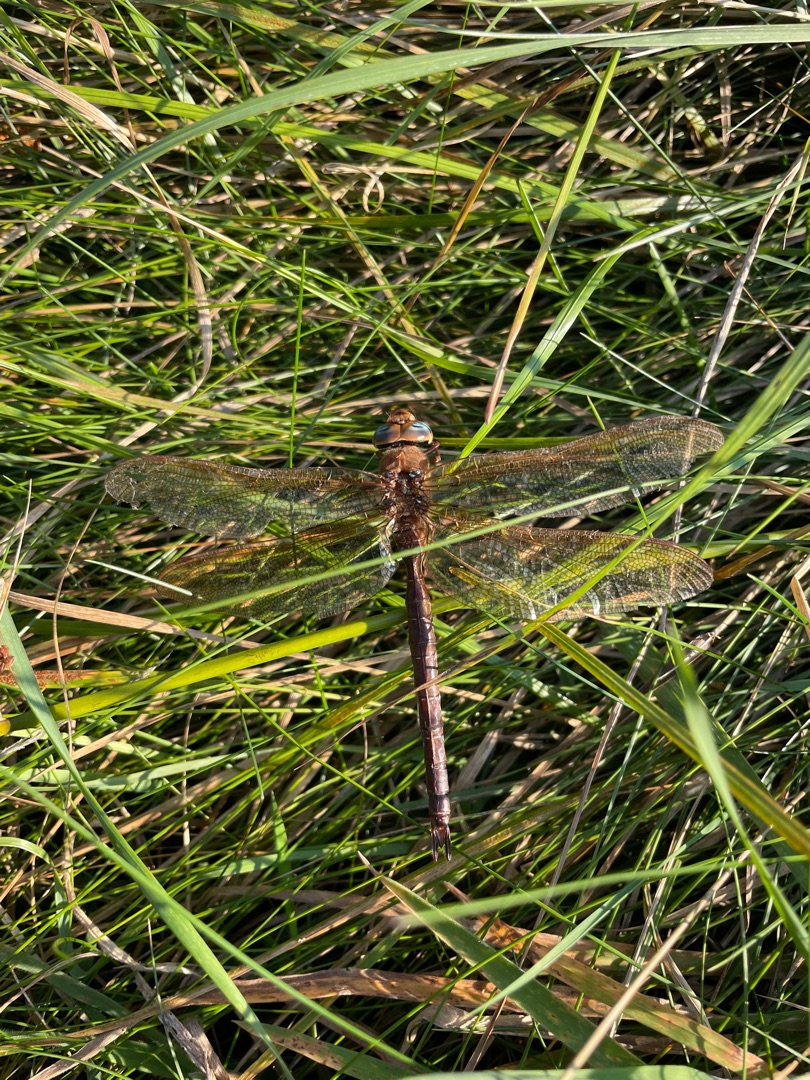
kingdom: Animalia
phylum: Arthropoda
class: Insecta
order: Odonata
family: Aeshnidae
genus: Aeshna
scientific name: Aeshna grandis
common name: Brun mosaikguldsmed
